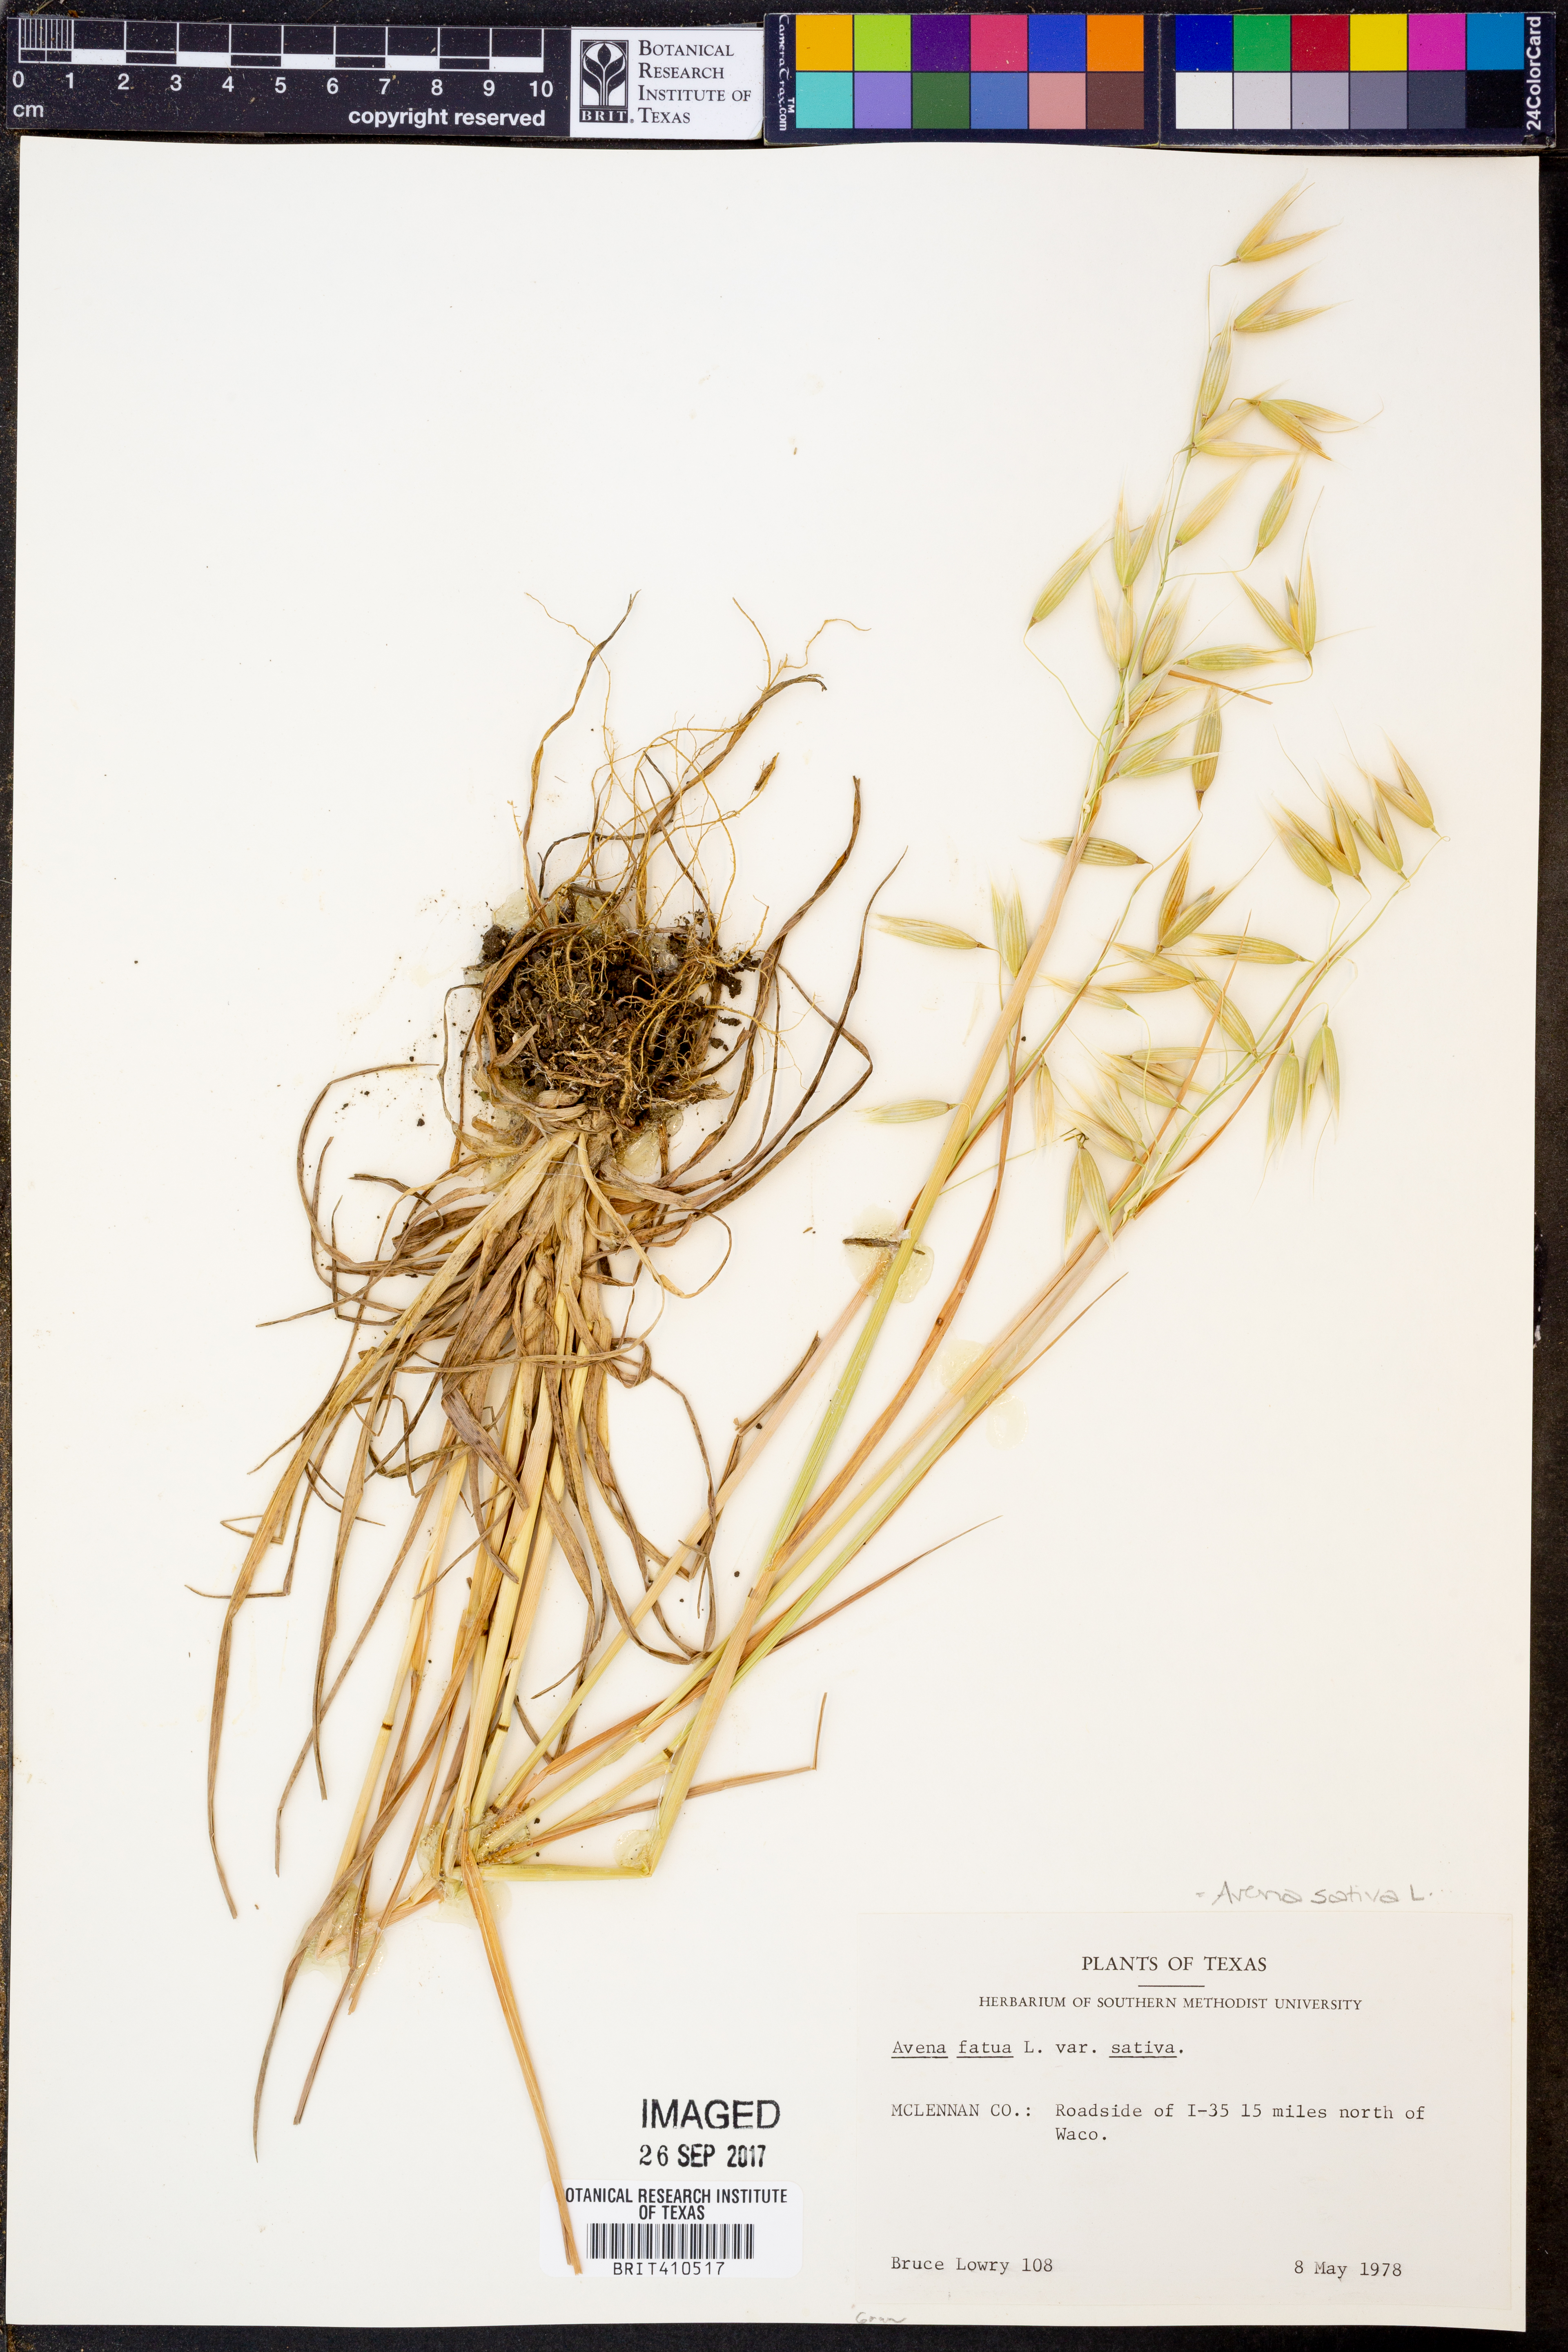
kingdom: Plantae
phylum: Tracheophyta
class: Liliopsida
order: Poales
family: Poaceae
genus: Avena
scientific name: Avena sativa
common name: Oat
